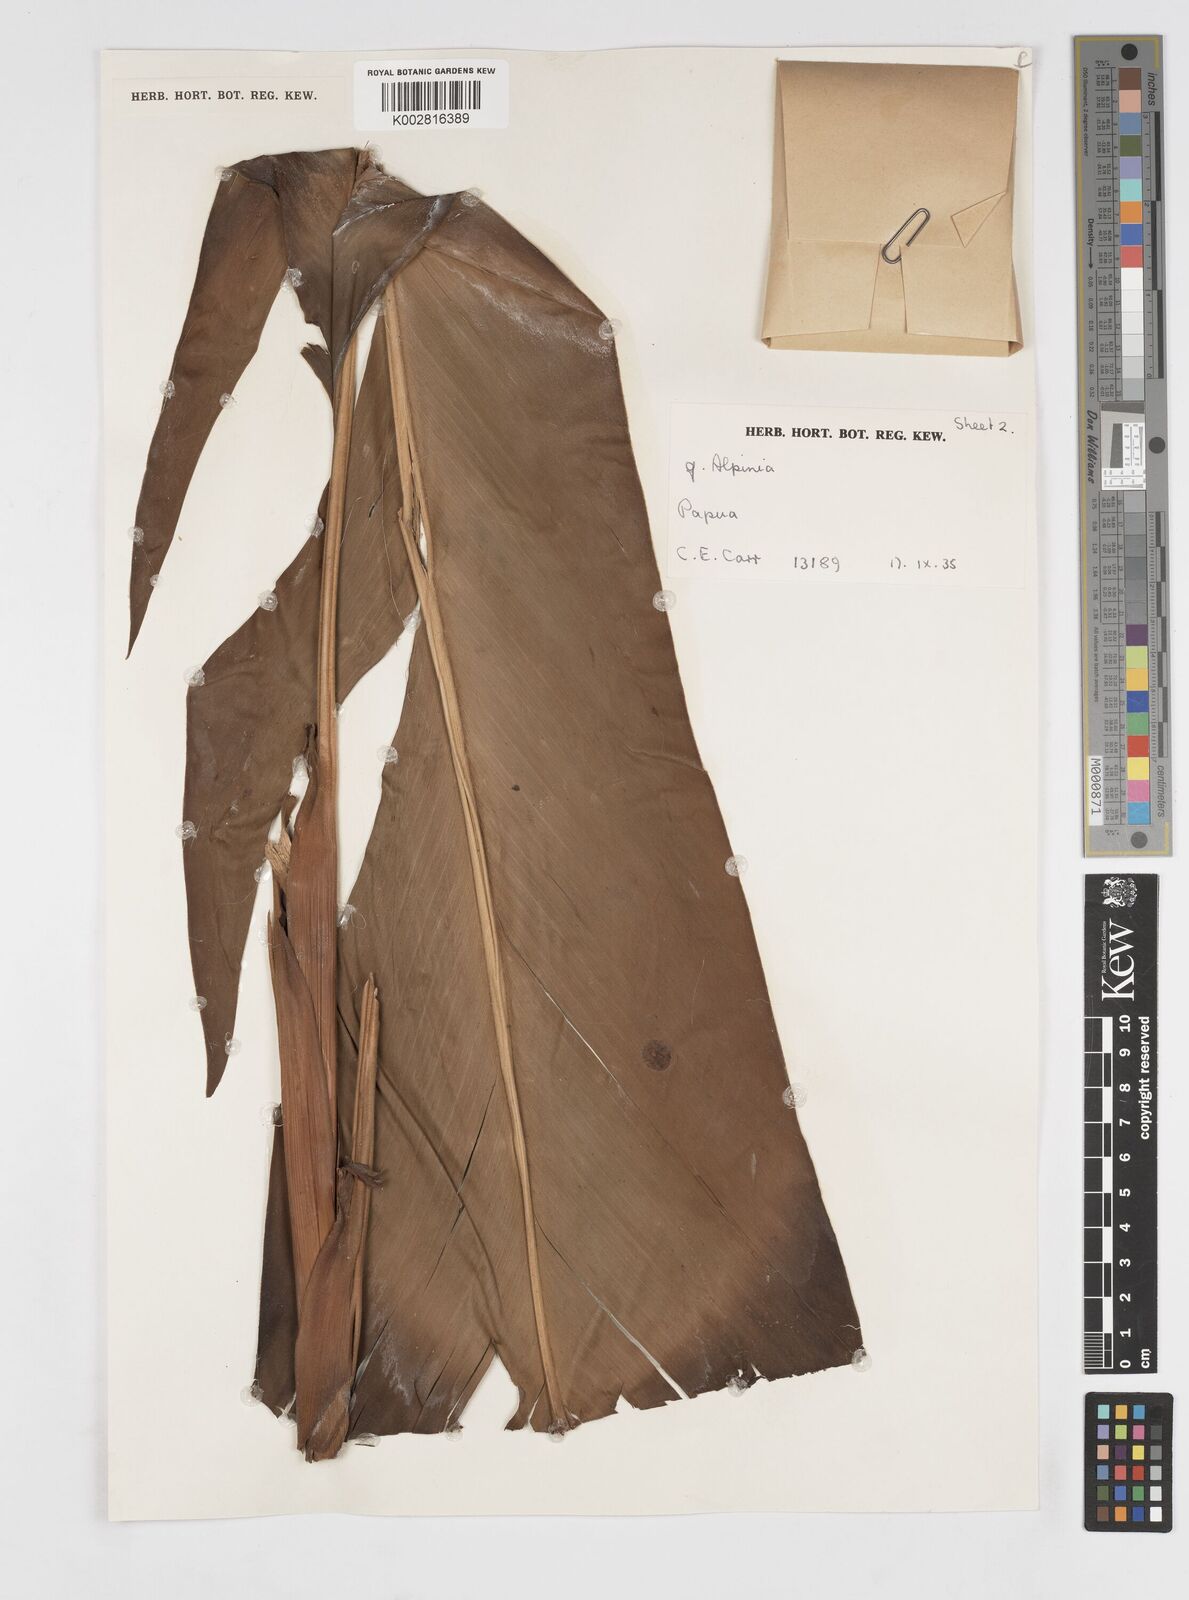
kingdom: Plantae
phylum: Tracheophyta
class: Liliopsida
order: Zingiberales
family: Zingiberaceae
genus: Alpinia
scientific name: Alpinia pulchra
